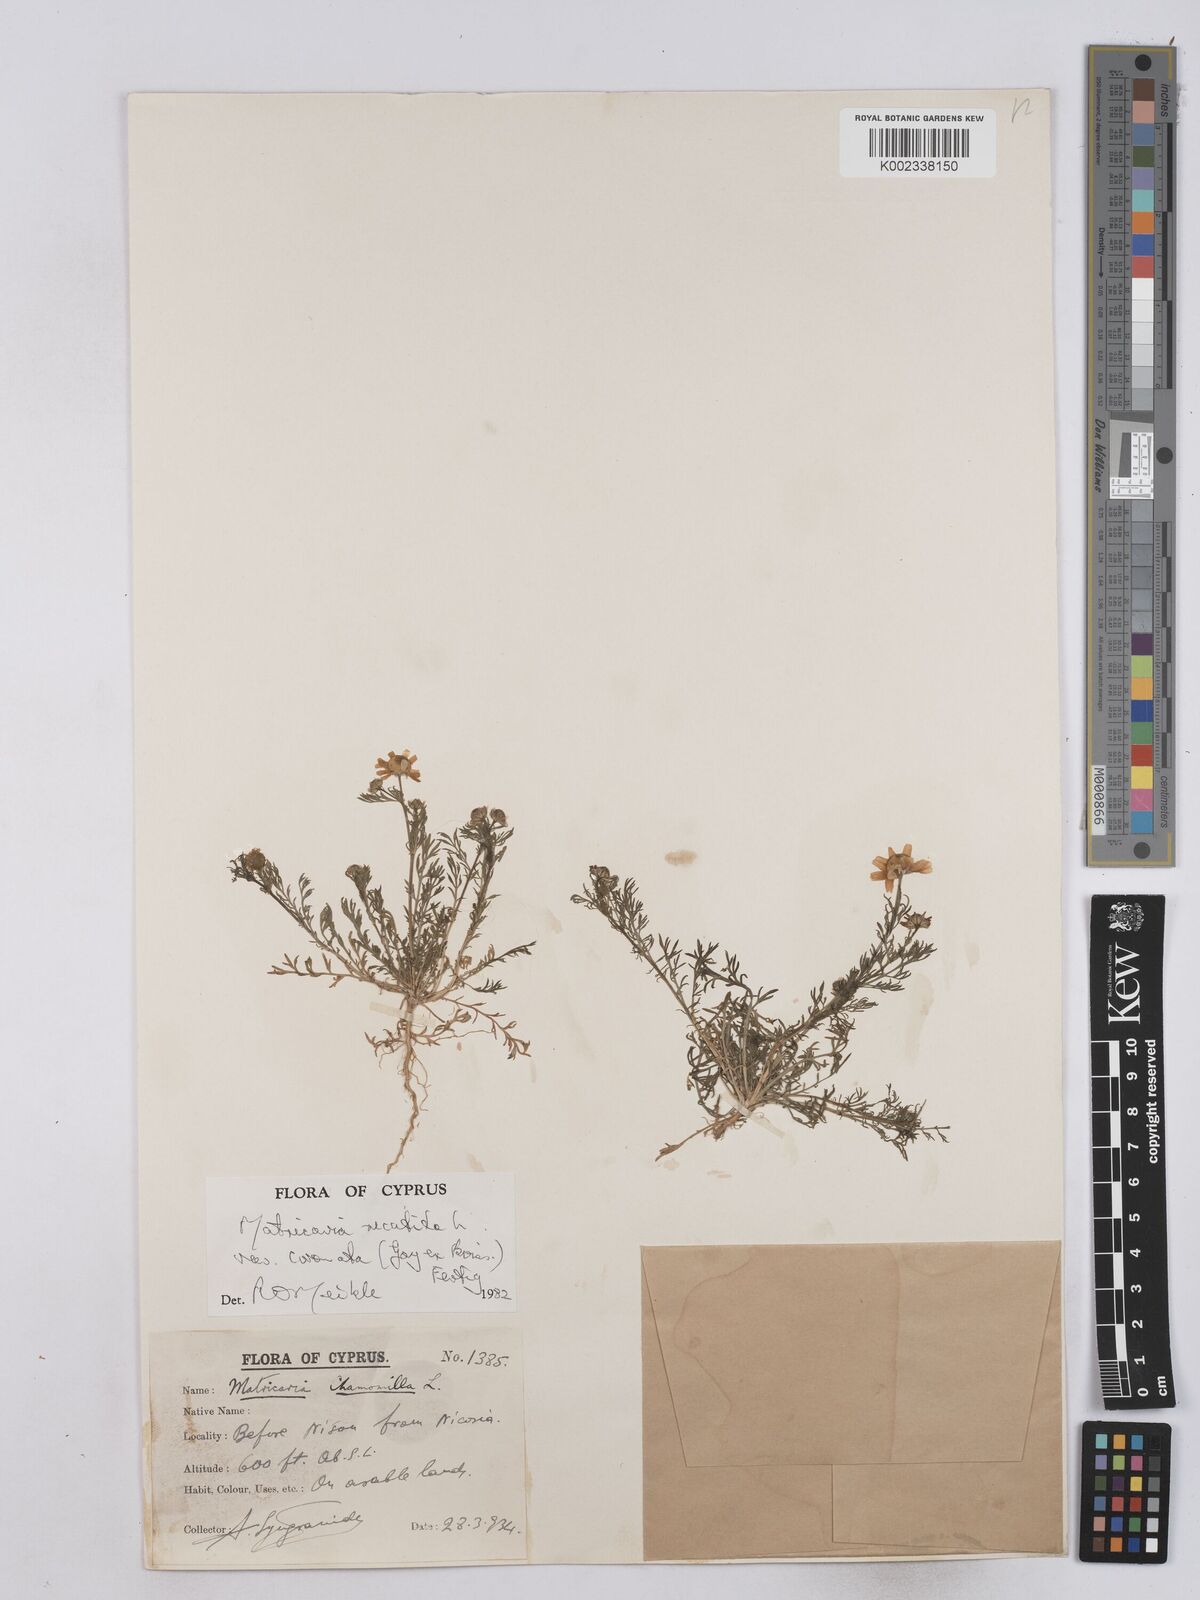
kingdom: Plantae
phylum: Tracheophyta
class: Magnoliopsida
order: Asterales
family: Asteraceae
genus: Matricaria
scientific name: Matricaria chamomilla
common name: Scented mayweed
